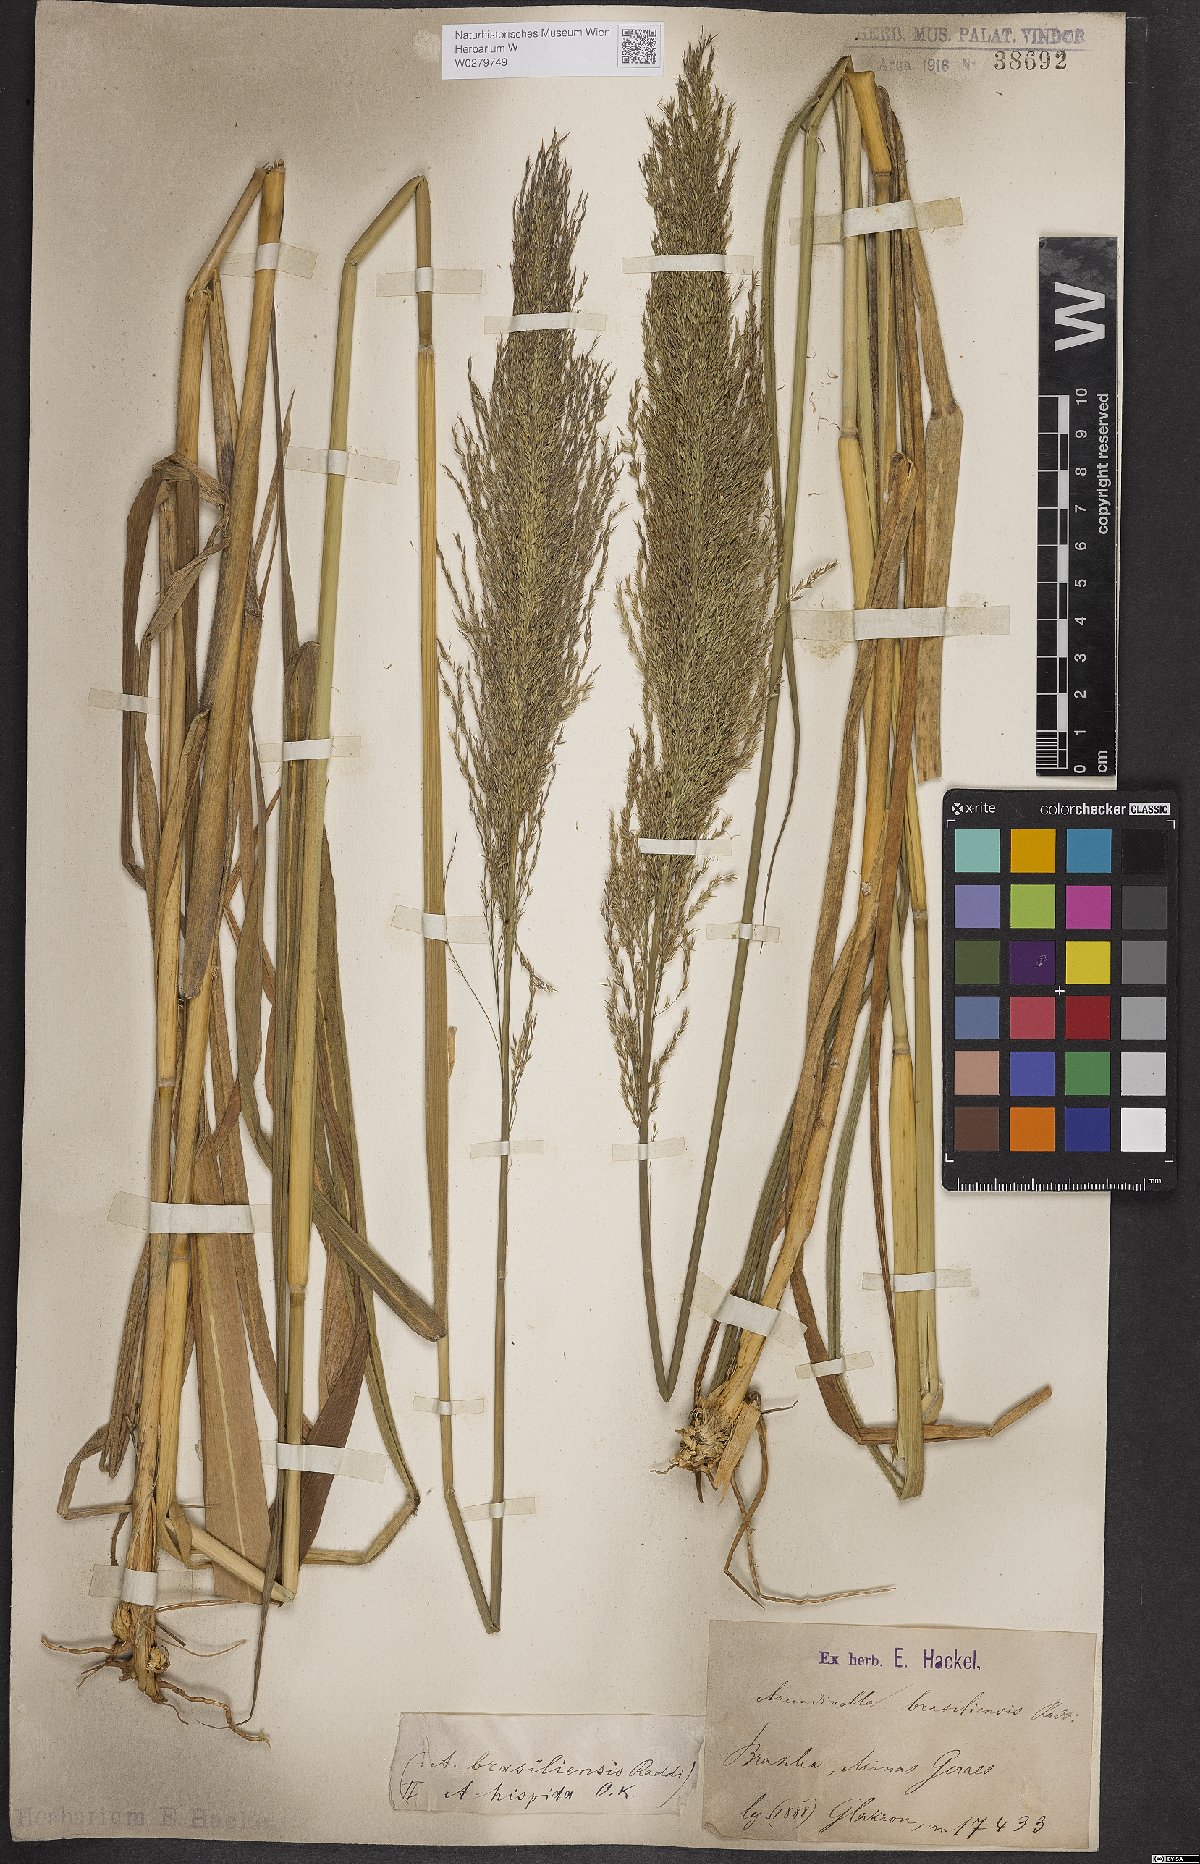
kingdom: Plantae
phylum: Tracheophyta
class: Liliopsida
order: Poales
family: Poaceae
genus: Arundinella
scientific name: Arundinella hispida
